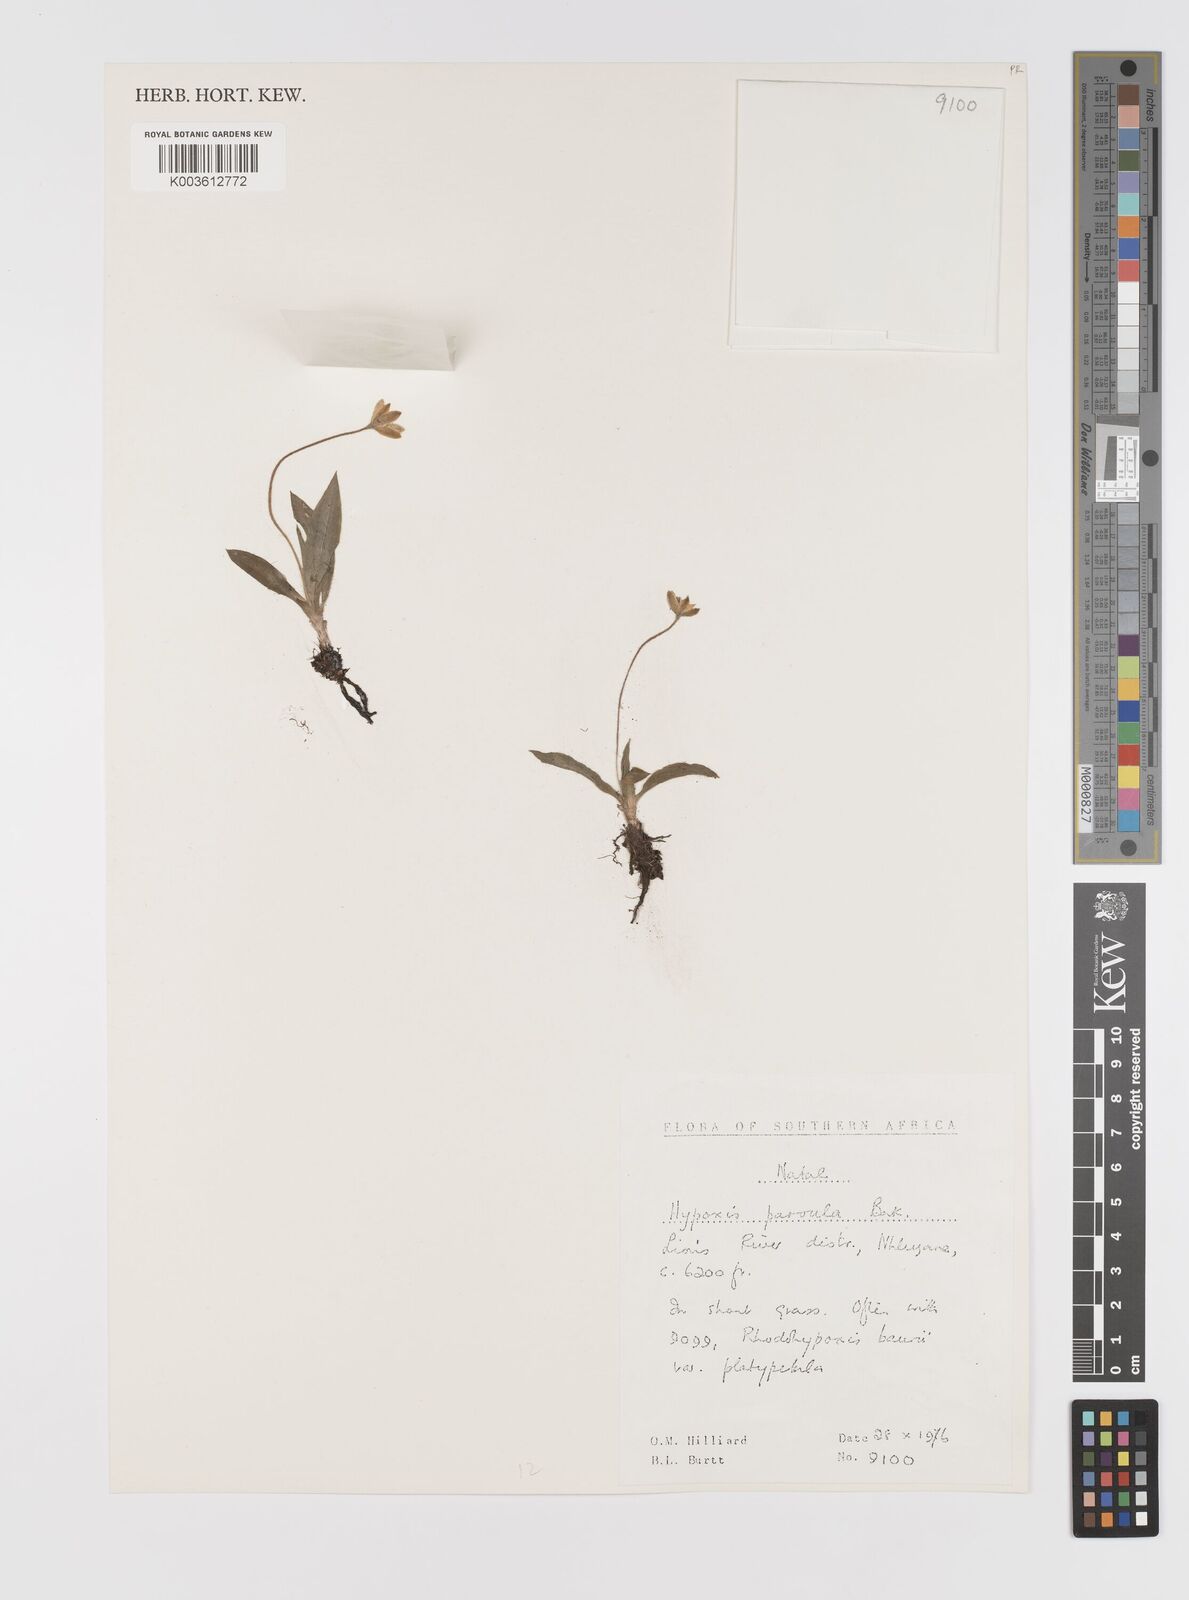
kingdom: Plantae
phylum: Tracheophyta
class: Liliopsida
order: Asparagales
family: Hypoxidaceae
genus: Hypoxis
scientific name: Hypoxis parvula
